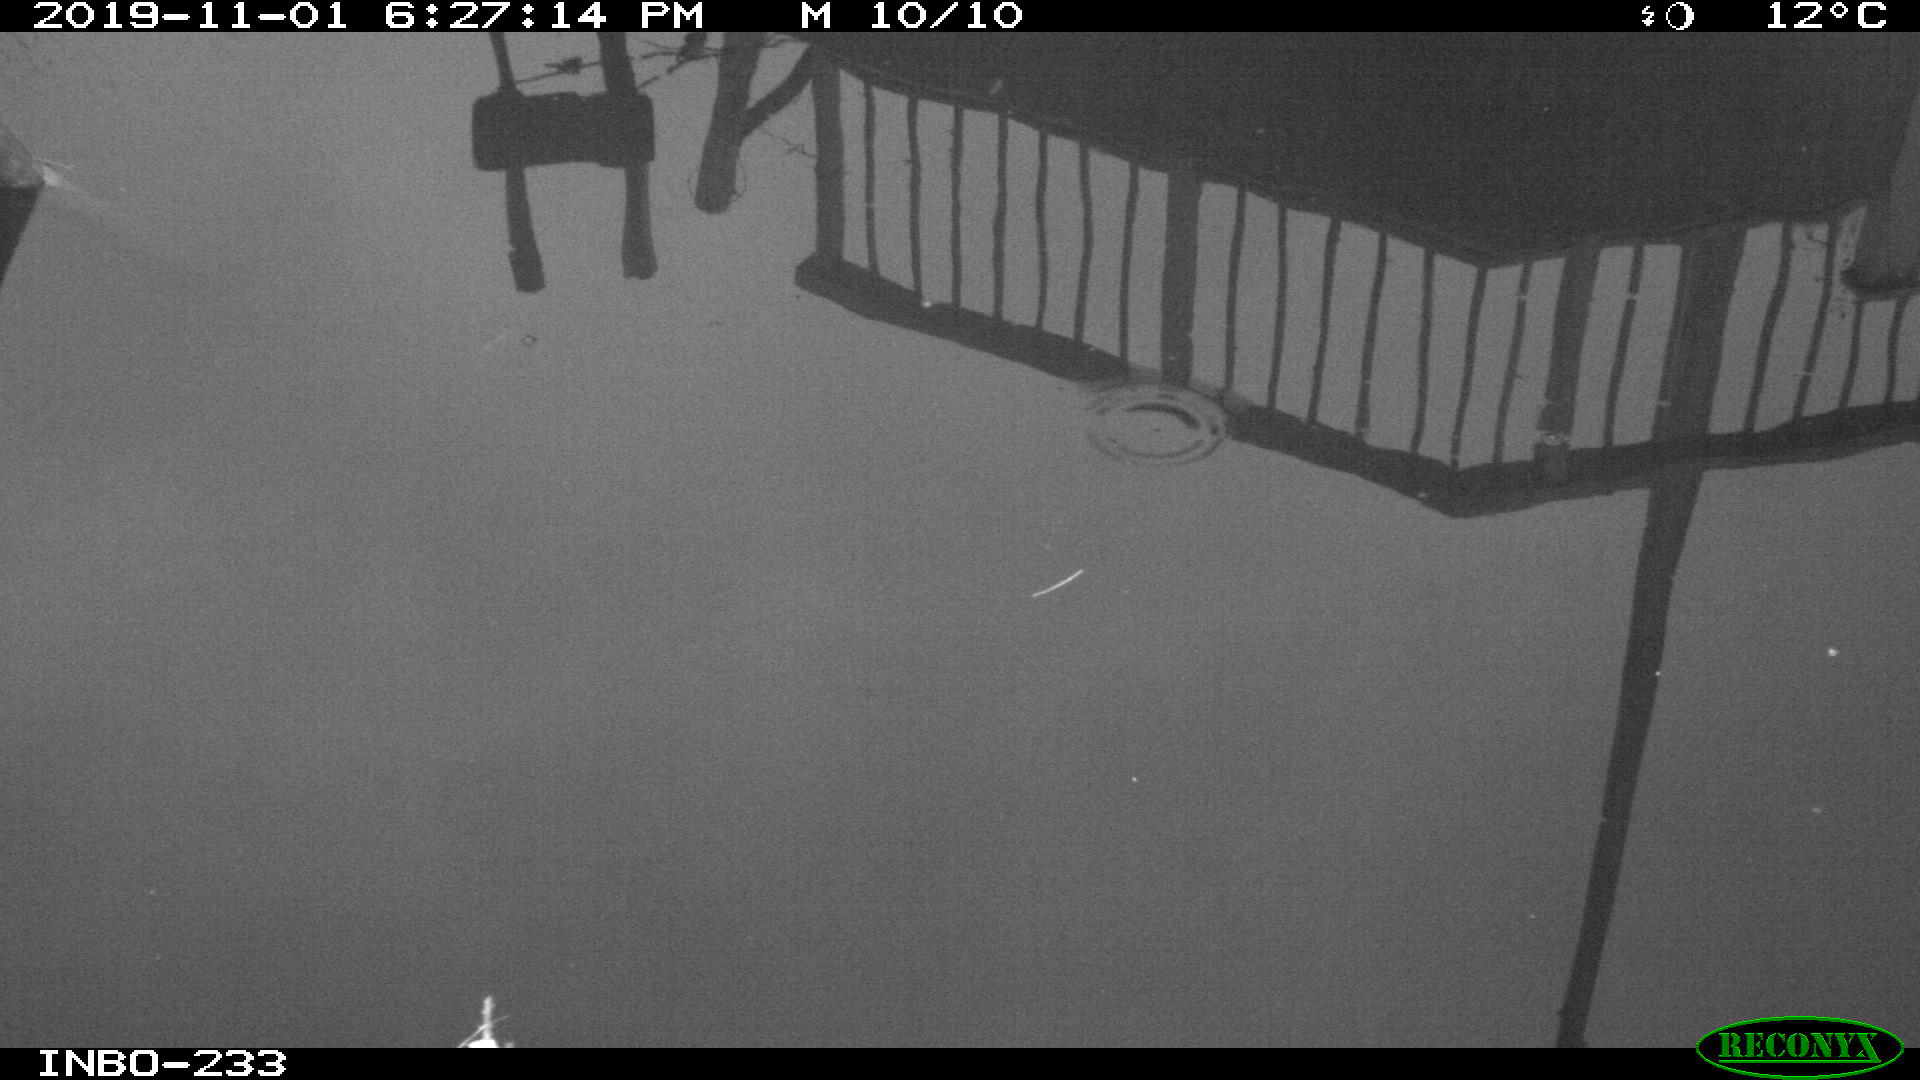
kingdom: Animalia
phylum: Chordata
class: Aves
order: Gruiformes
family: Rallidae
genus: Gallinula
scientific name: Gallinula chloropus
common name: Common moorhen
